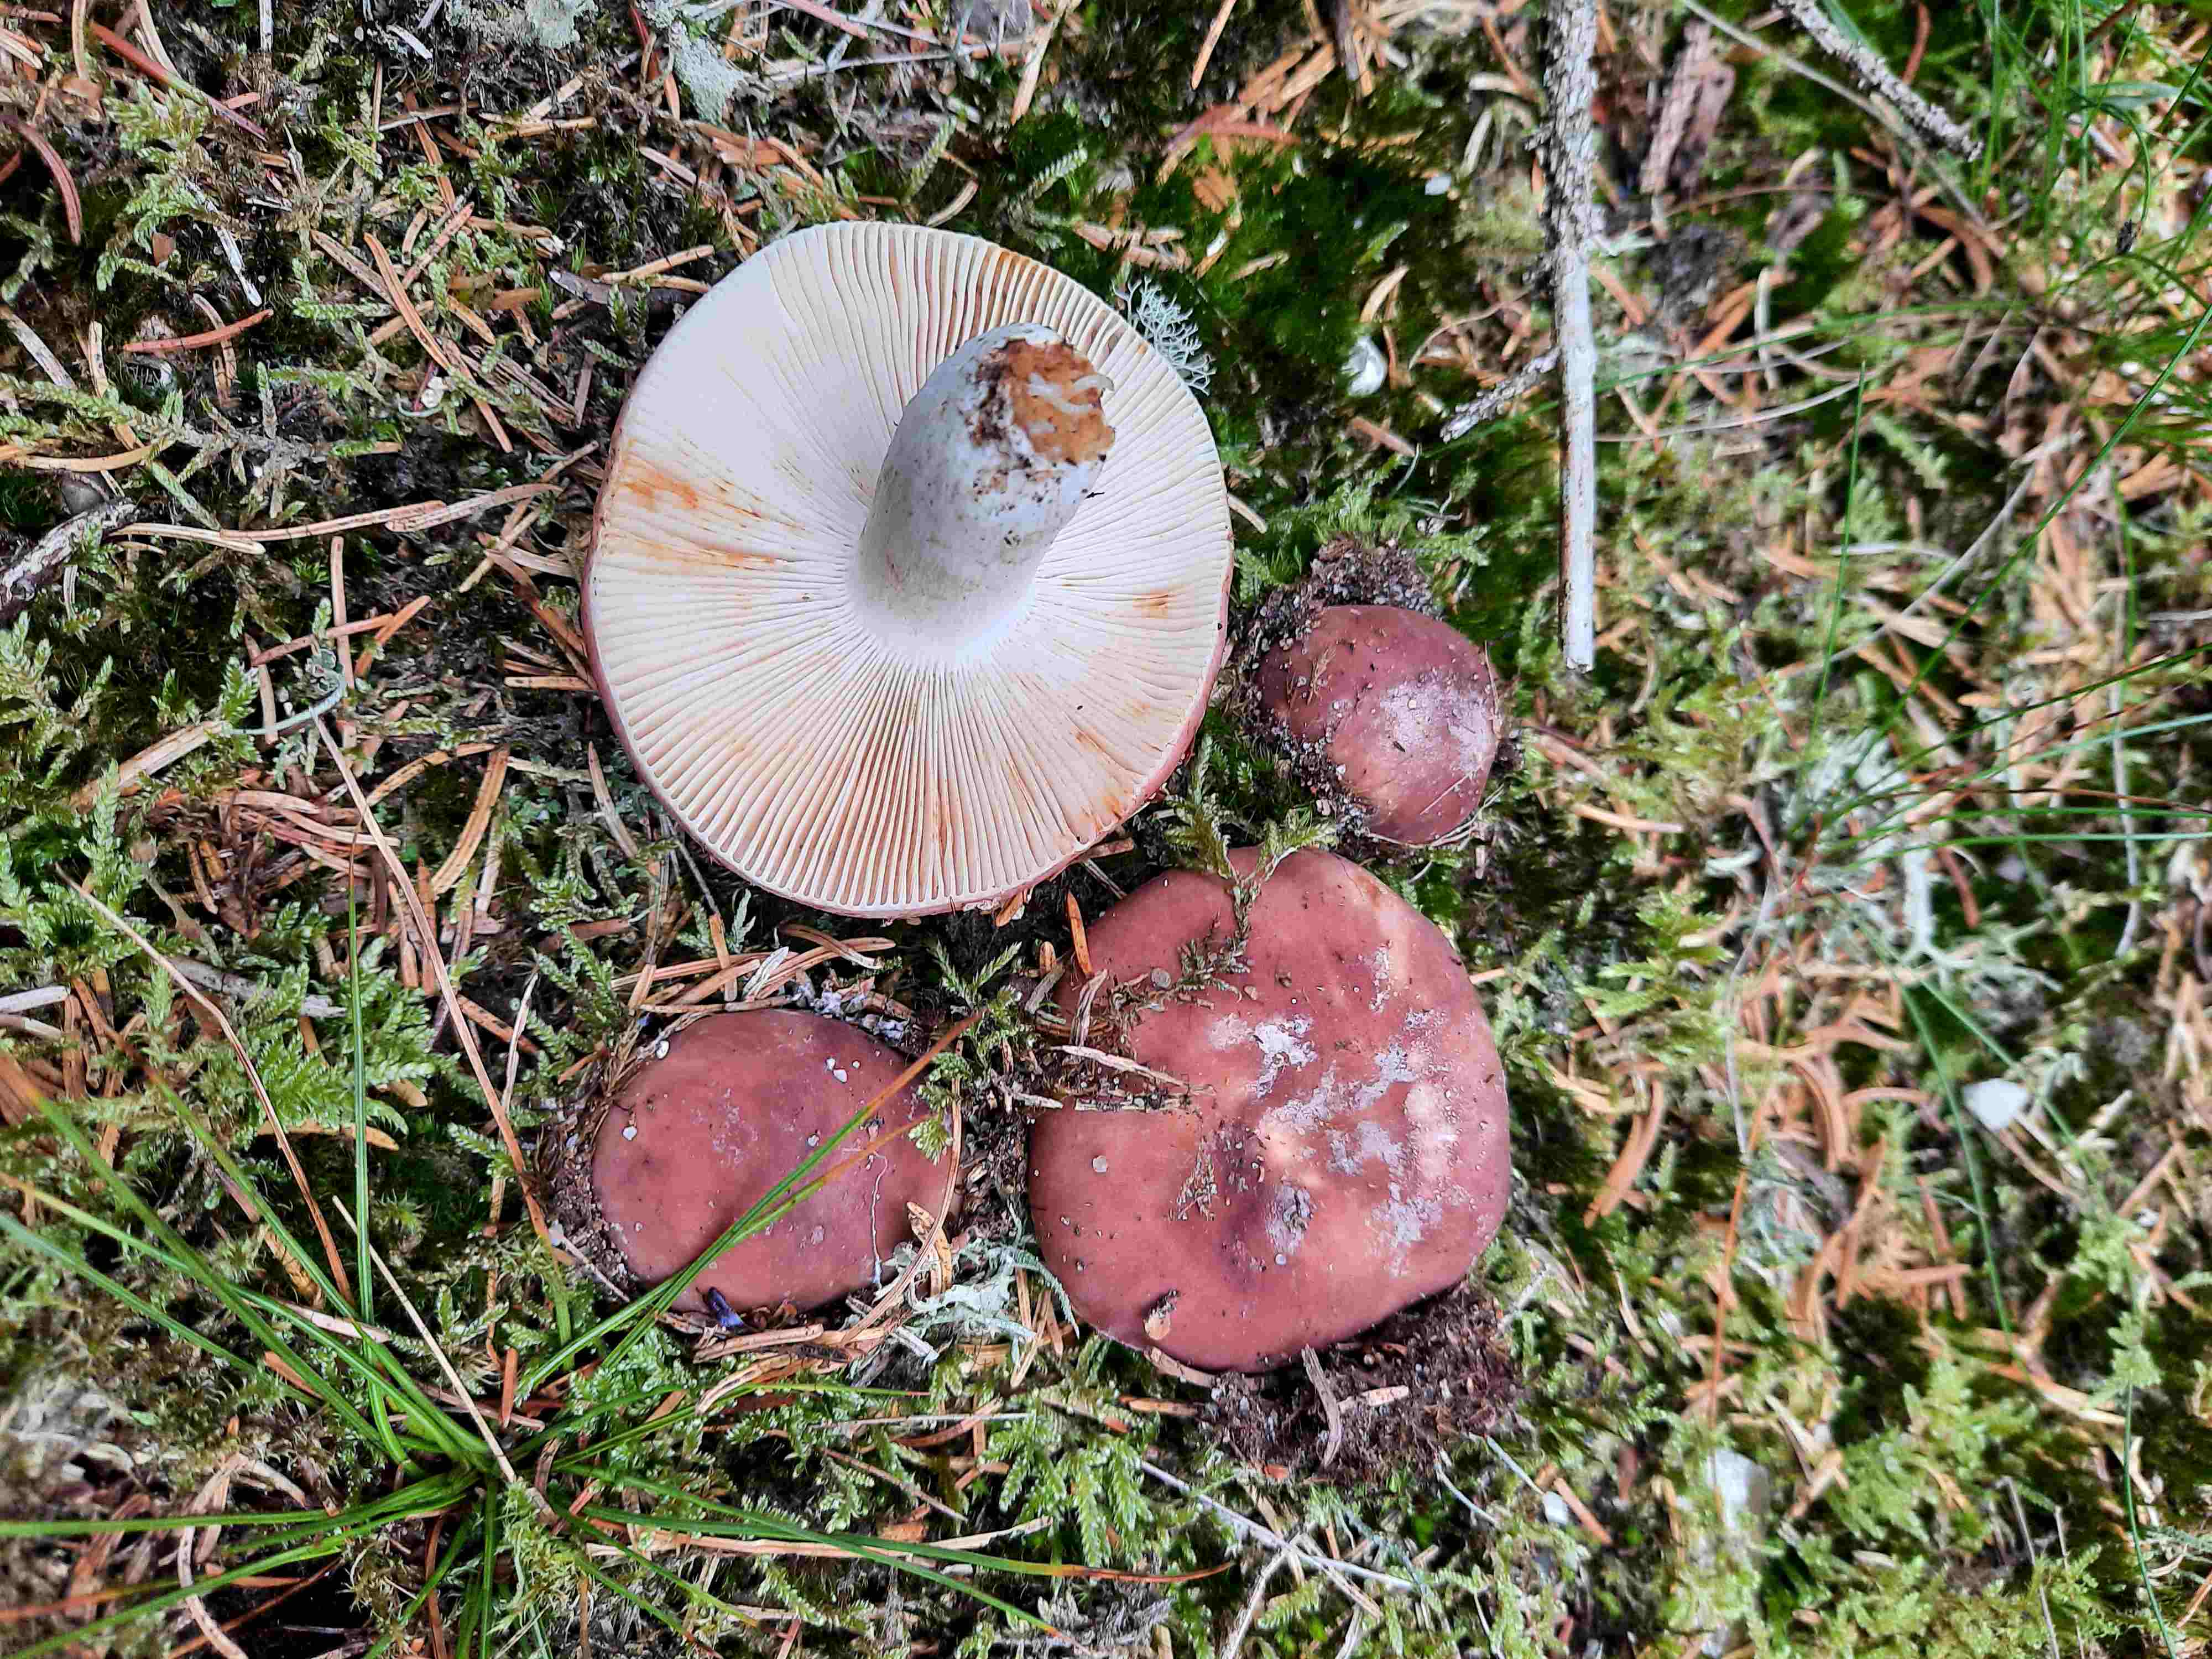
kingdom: Fungi
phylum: Basidiomycota
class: Agaricomycetes
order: Russulales
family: Russulaceae
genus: Russula
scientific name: Russula vesca
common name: spiselig skørhat
